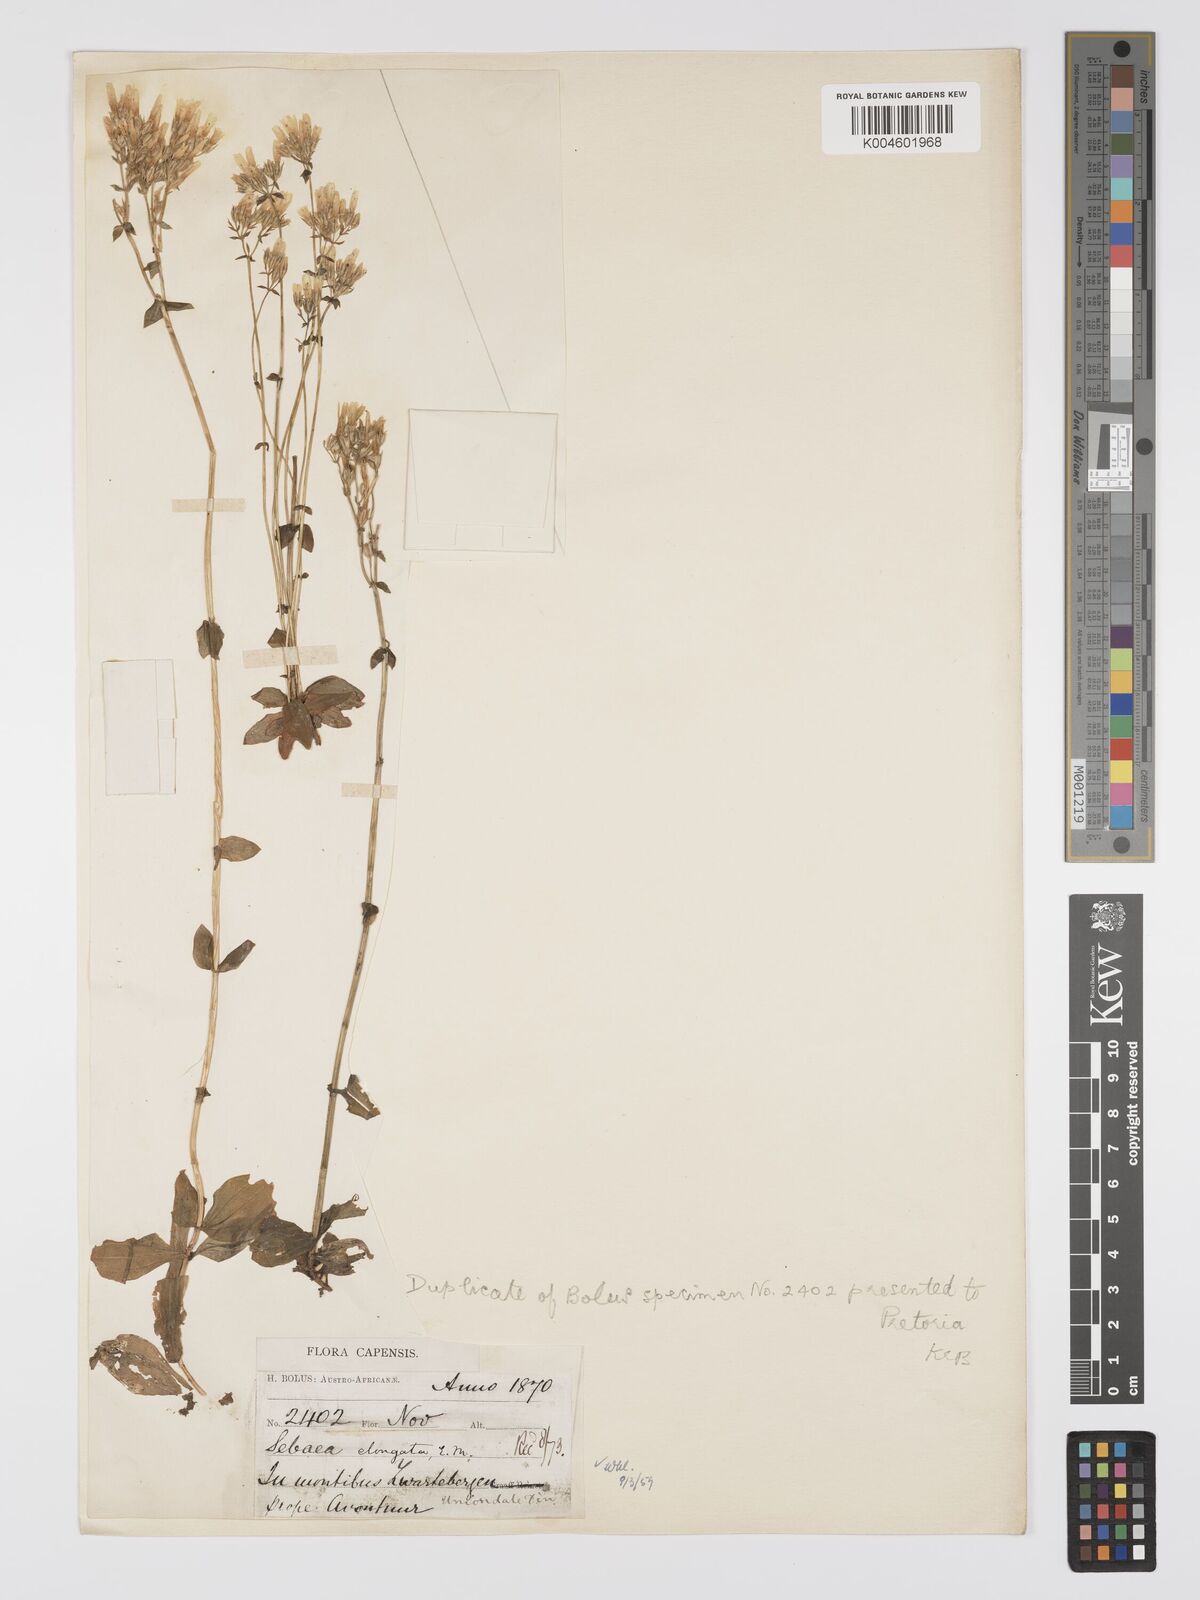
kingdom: Plantae
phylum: Tracheophyta
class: Magnoliopsida
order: Gentianales
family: Gentianaceae
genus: Sebaea
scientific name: Sebaea elongata
